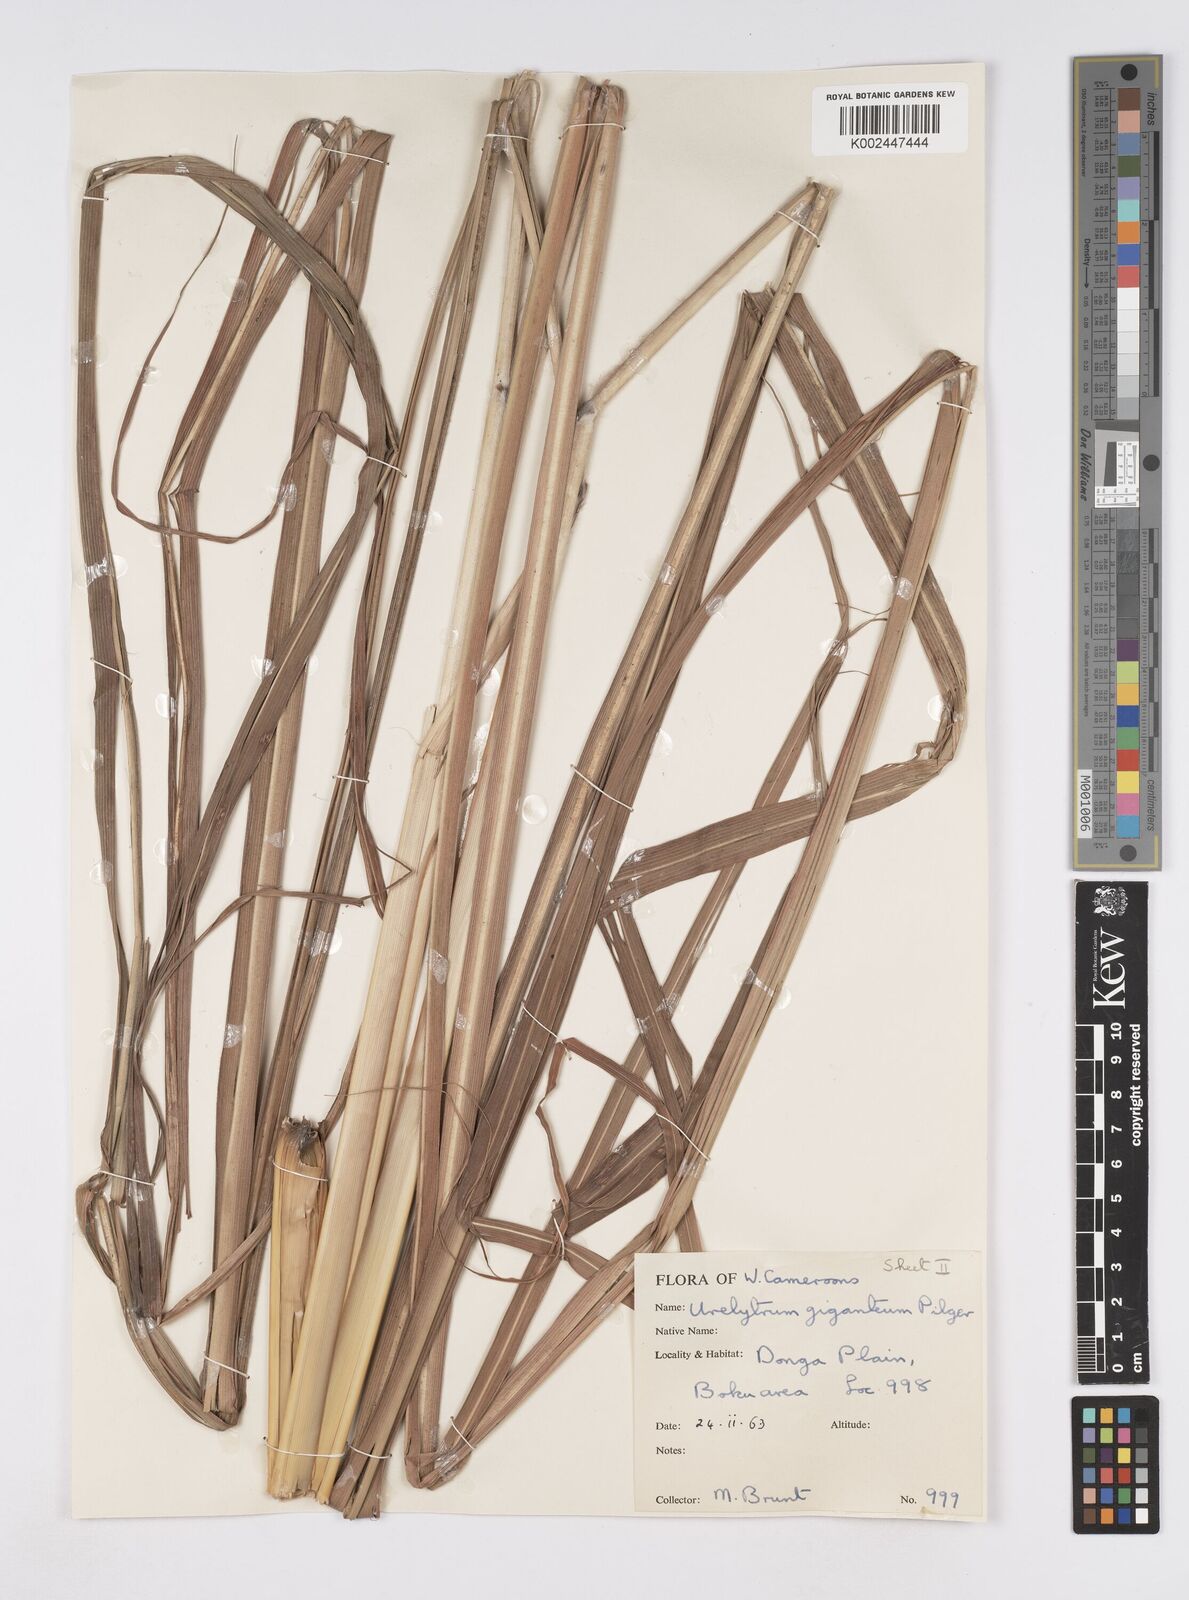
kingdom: Plantae
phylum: Tracheophyta
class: Liliopsida
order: Poales
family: Poaceae
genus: Urelytrum
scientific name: Urelytrum giganteum
